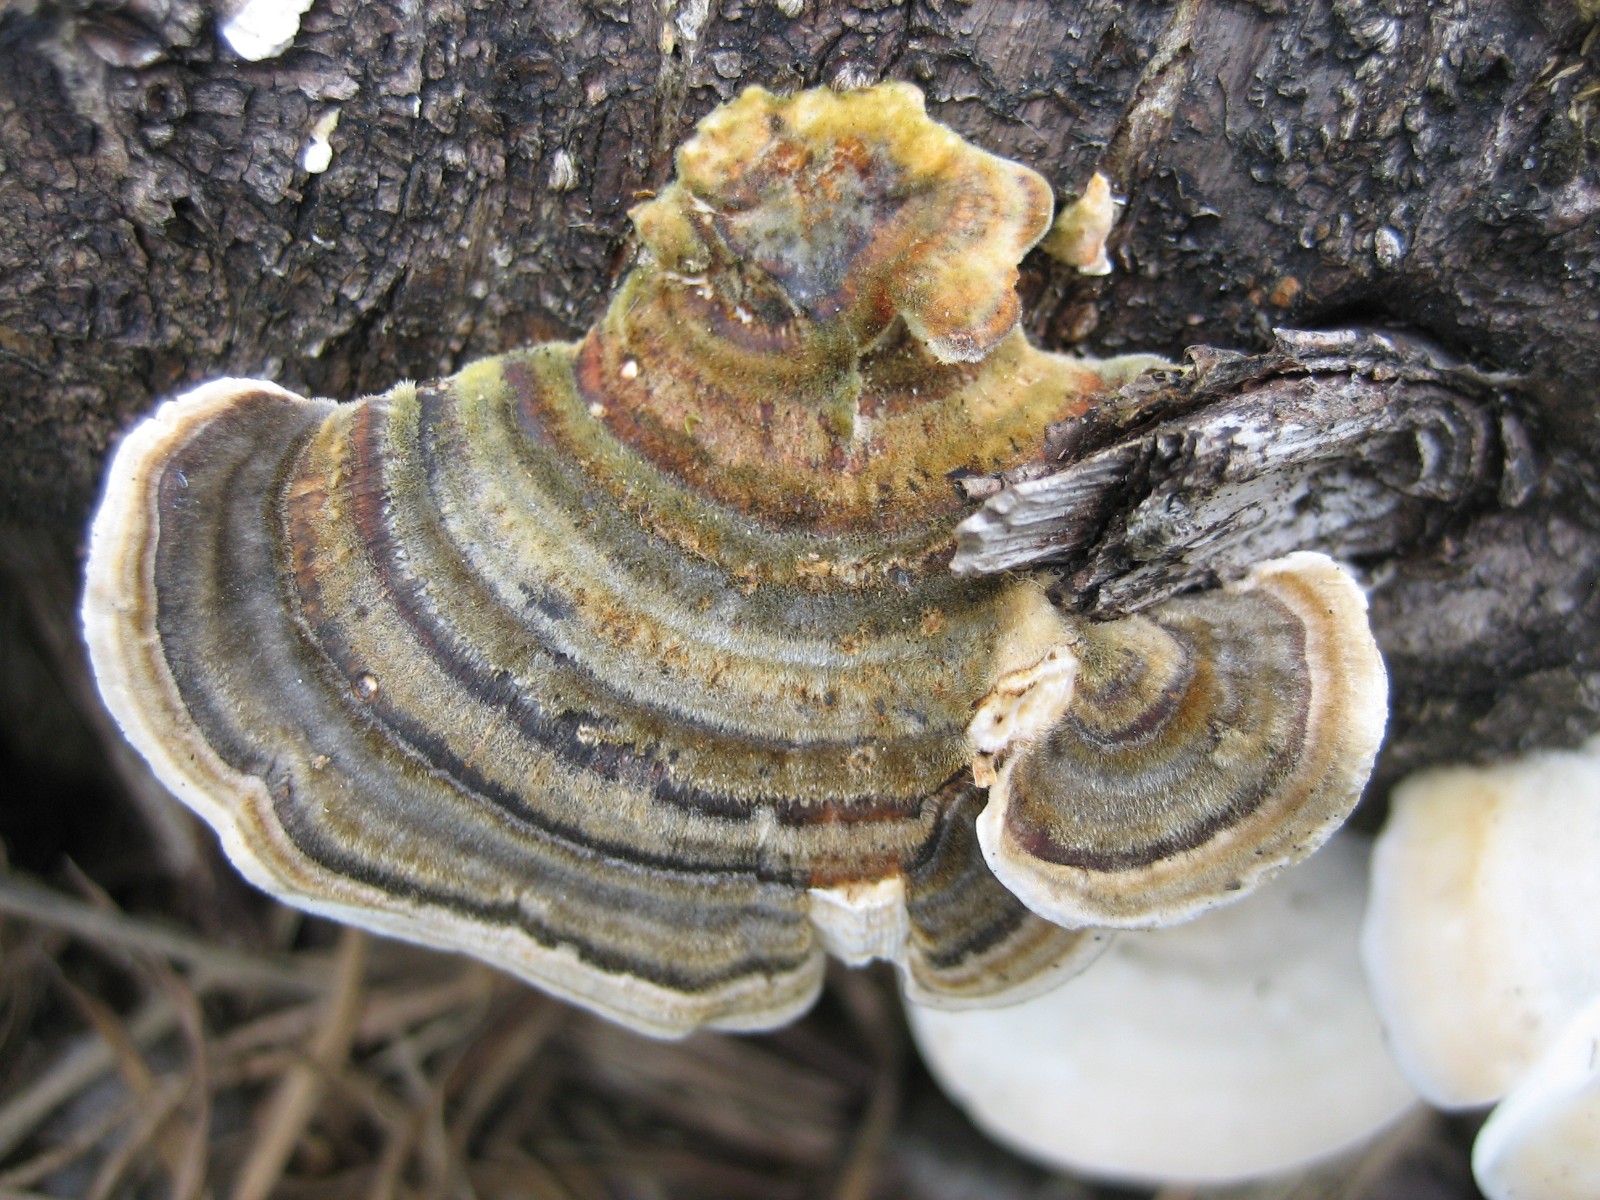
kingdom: Fungi
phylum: Basidiomycota
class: Agaricomycetes
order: Polyporales
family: Polyporaceae
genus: Trametes
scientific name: Trametes versicolor
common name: broget læderporesvamp
